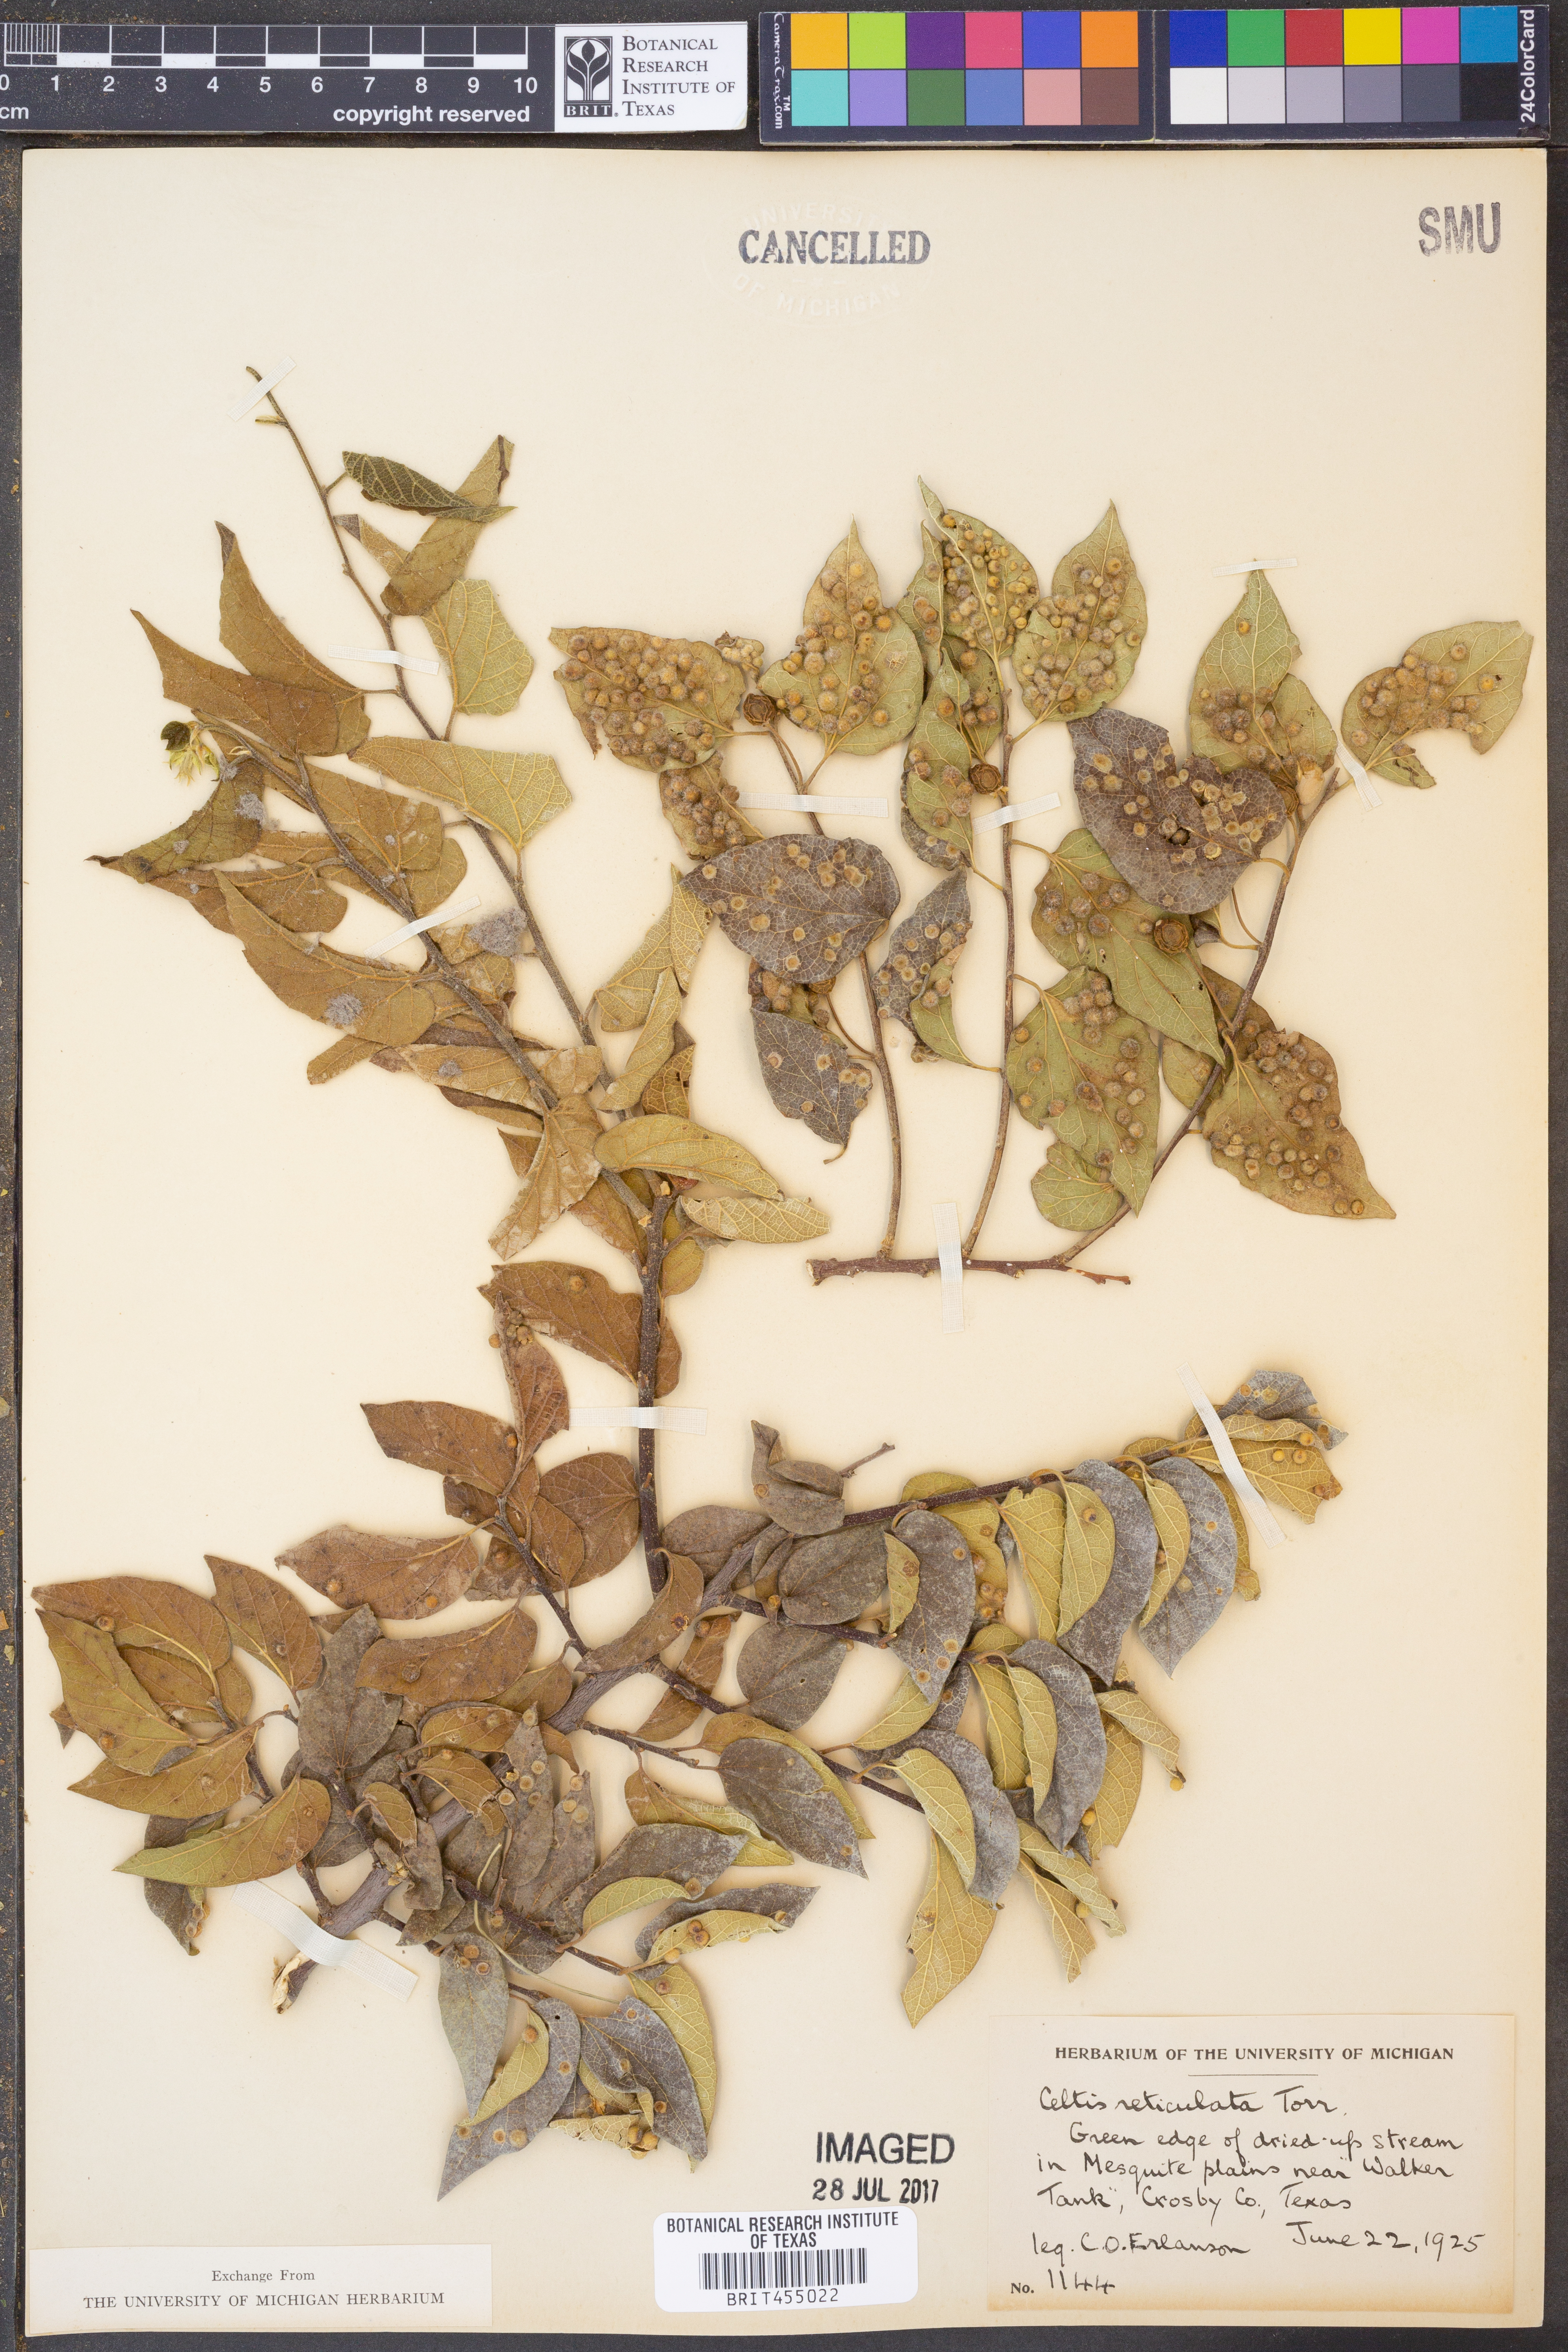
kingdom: Plantae
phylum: Tracheophyta
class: Magnoliopsida
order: Rosales
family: Cannabaceae
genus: Celtis
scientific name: Celtis reticulata
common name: Netleaf hackberry
